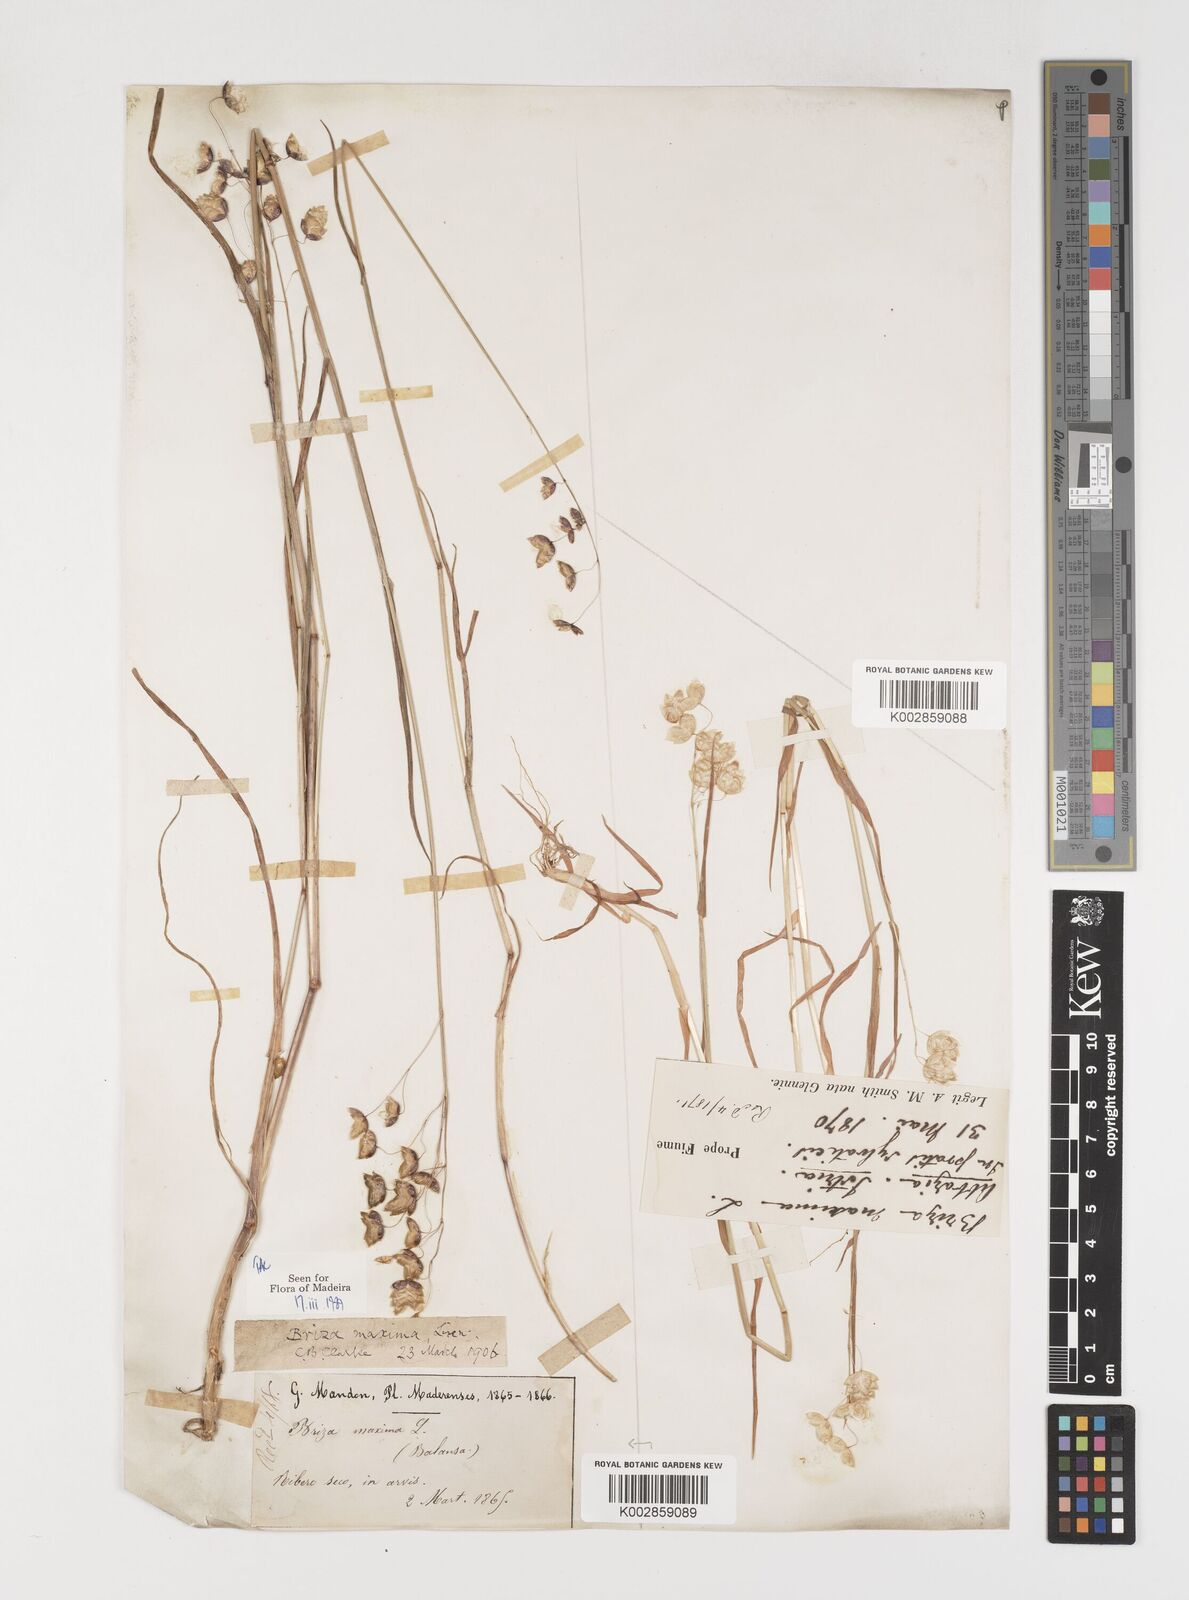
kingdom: Plantae
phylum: Tracheophyta
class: Liliopsida
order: Poales
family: Poaceae
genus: Briza
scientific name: Briza maxima
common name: Big quakinggrass
